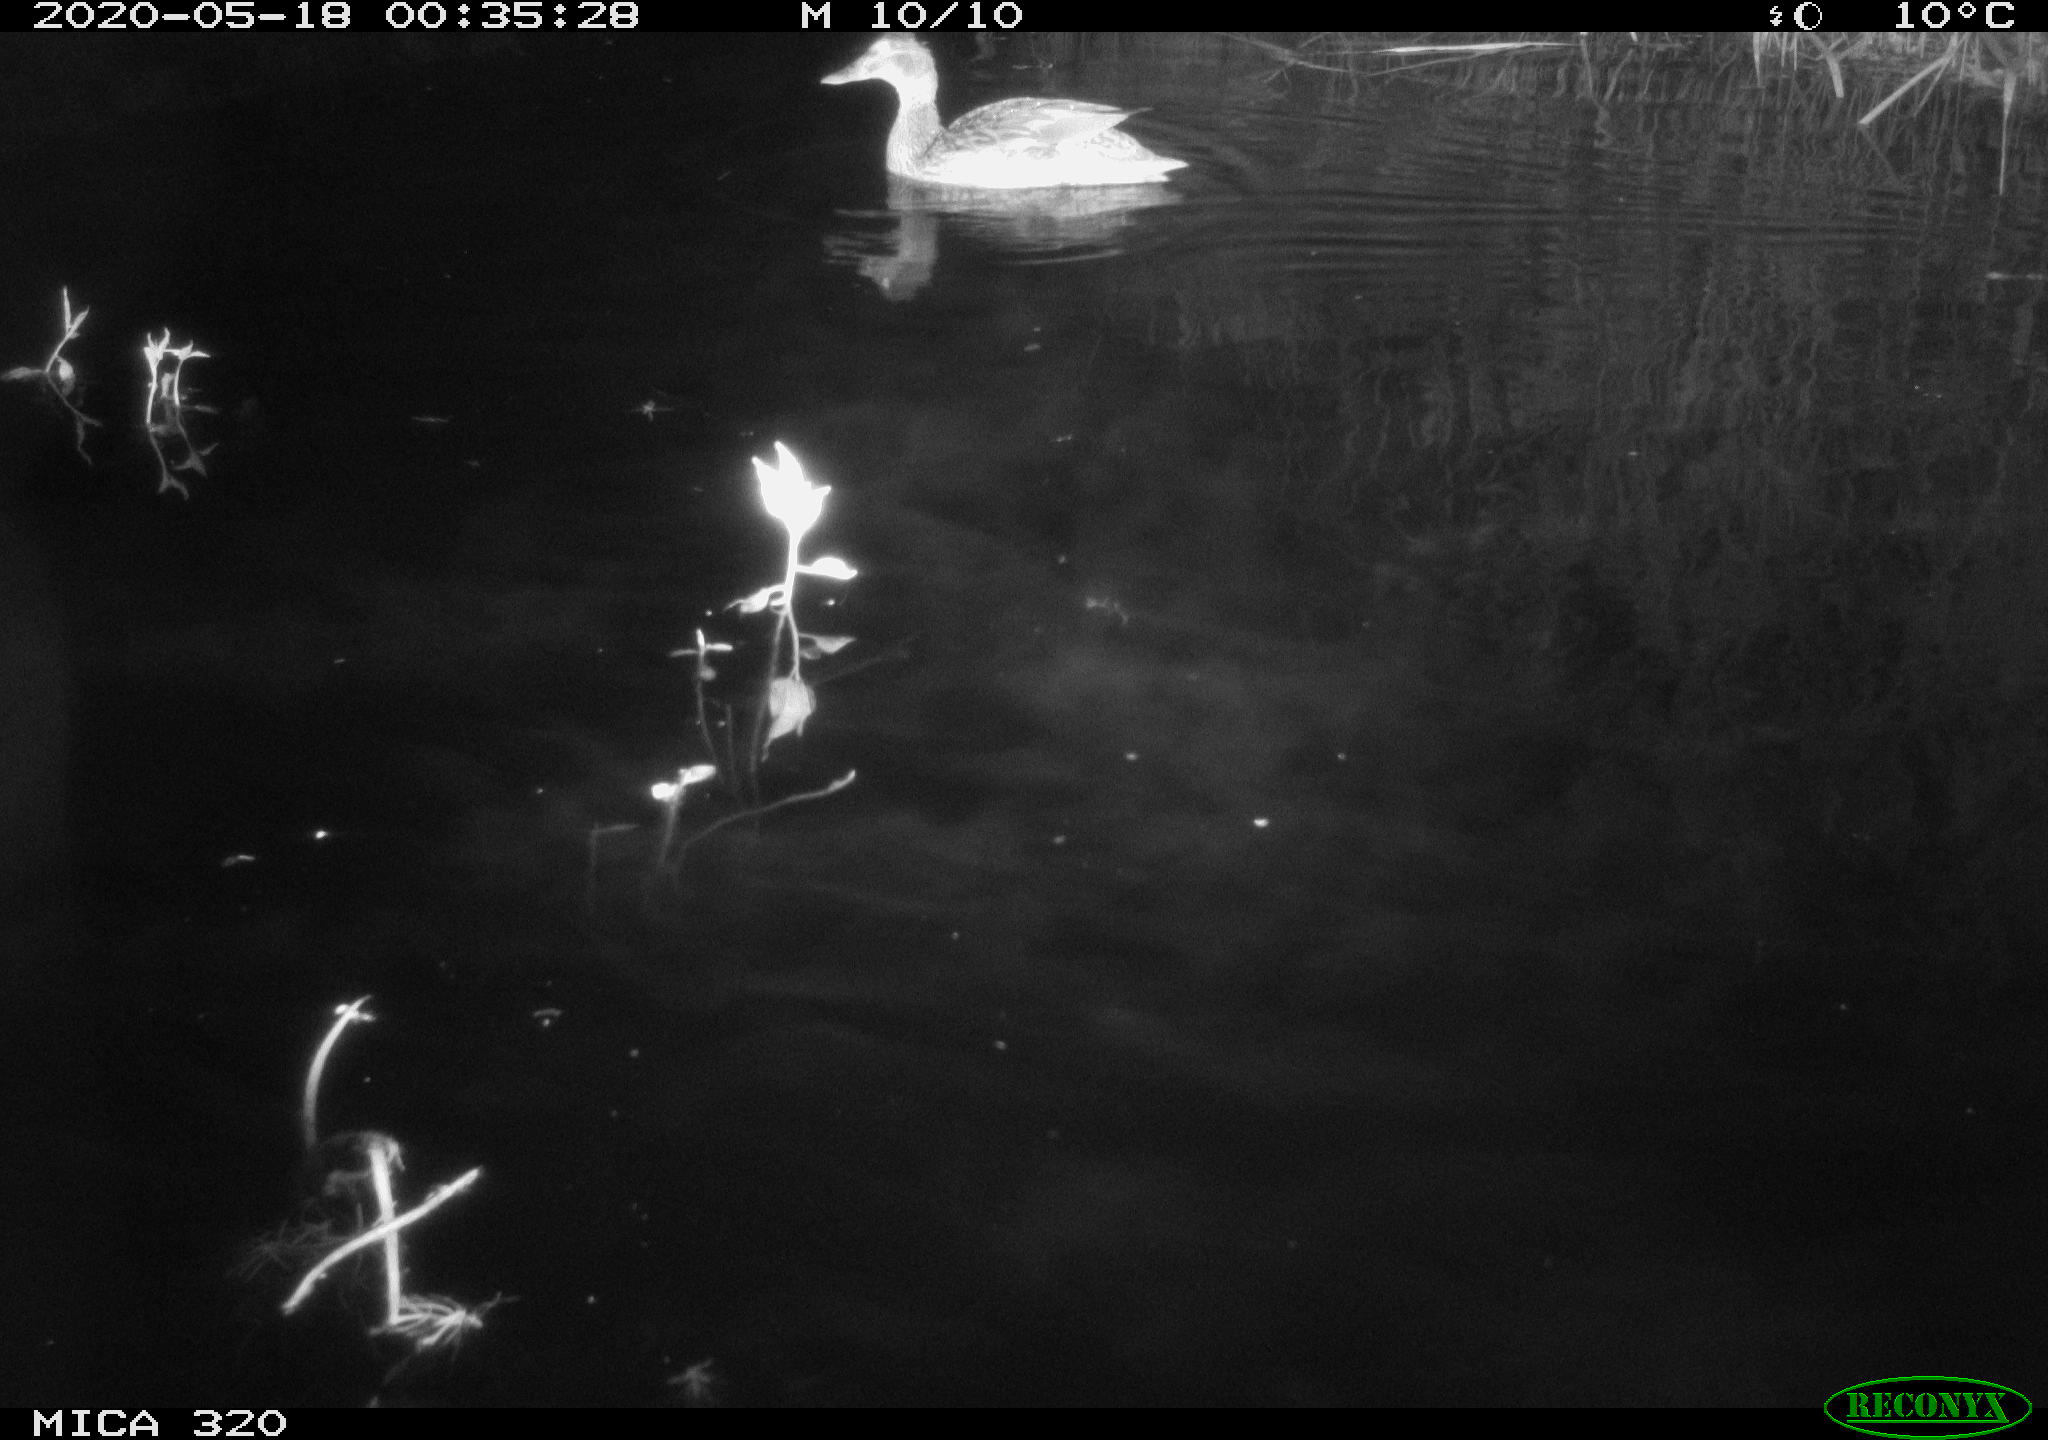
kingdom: Animalia
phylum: Chordata
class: Aves
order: Anseriformes
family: Anatidae
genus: Anas
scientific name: Anas platyrhynchos
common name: Mallard
